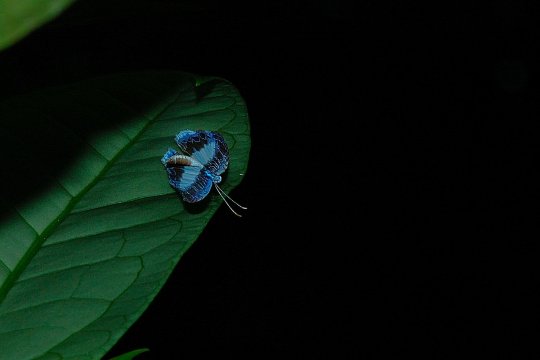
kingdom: Animalia
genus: Nymphidium
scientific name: Nymphidium mantus
